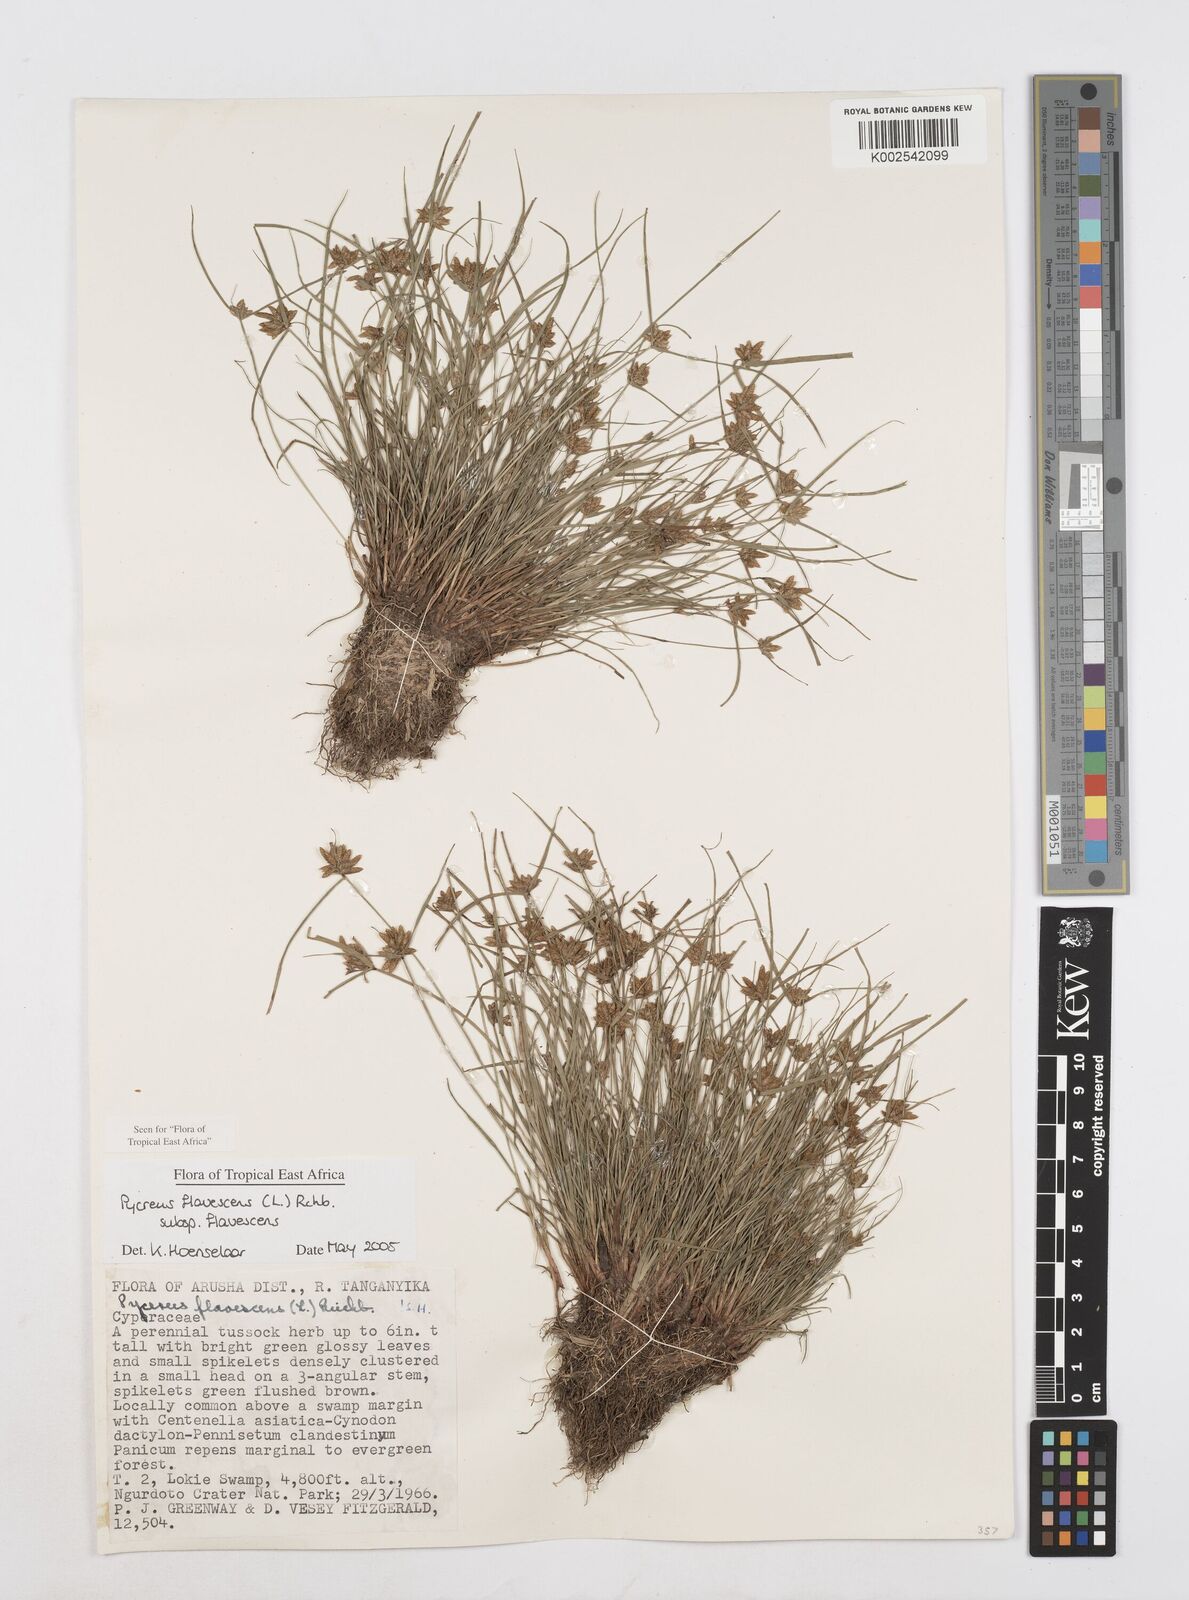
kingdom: Plantae
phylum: Tracheophyta
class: Liliopsida
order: Poales
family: Cyperaceae
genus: Cyperus
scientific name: Cyperus flavescens
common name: Yellow galingale
